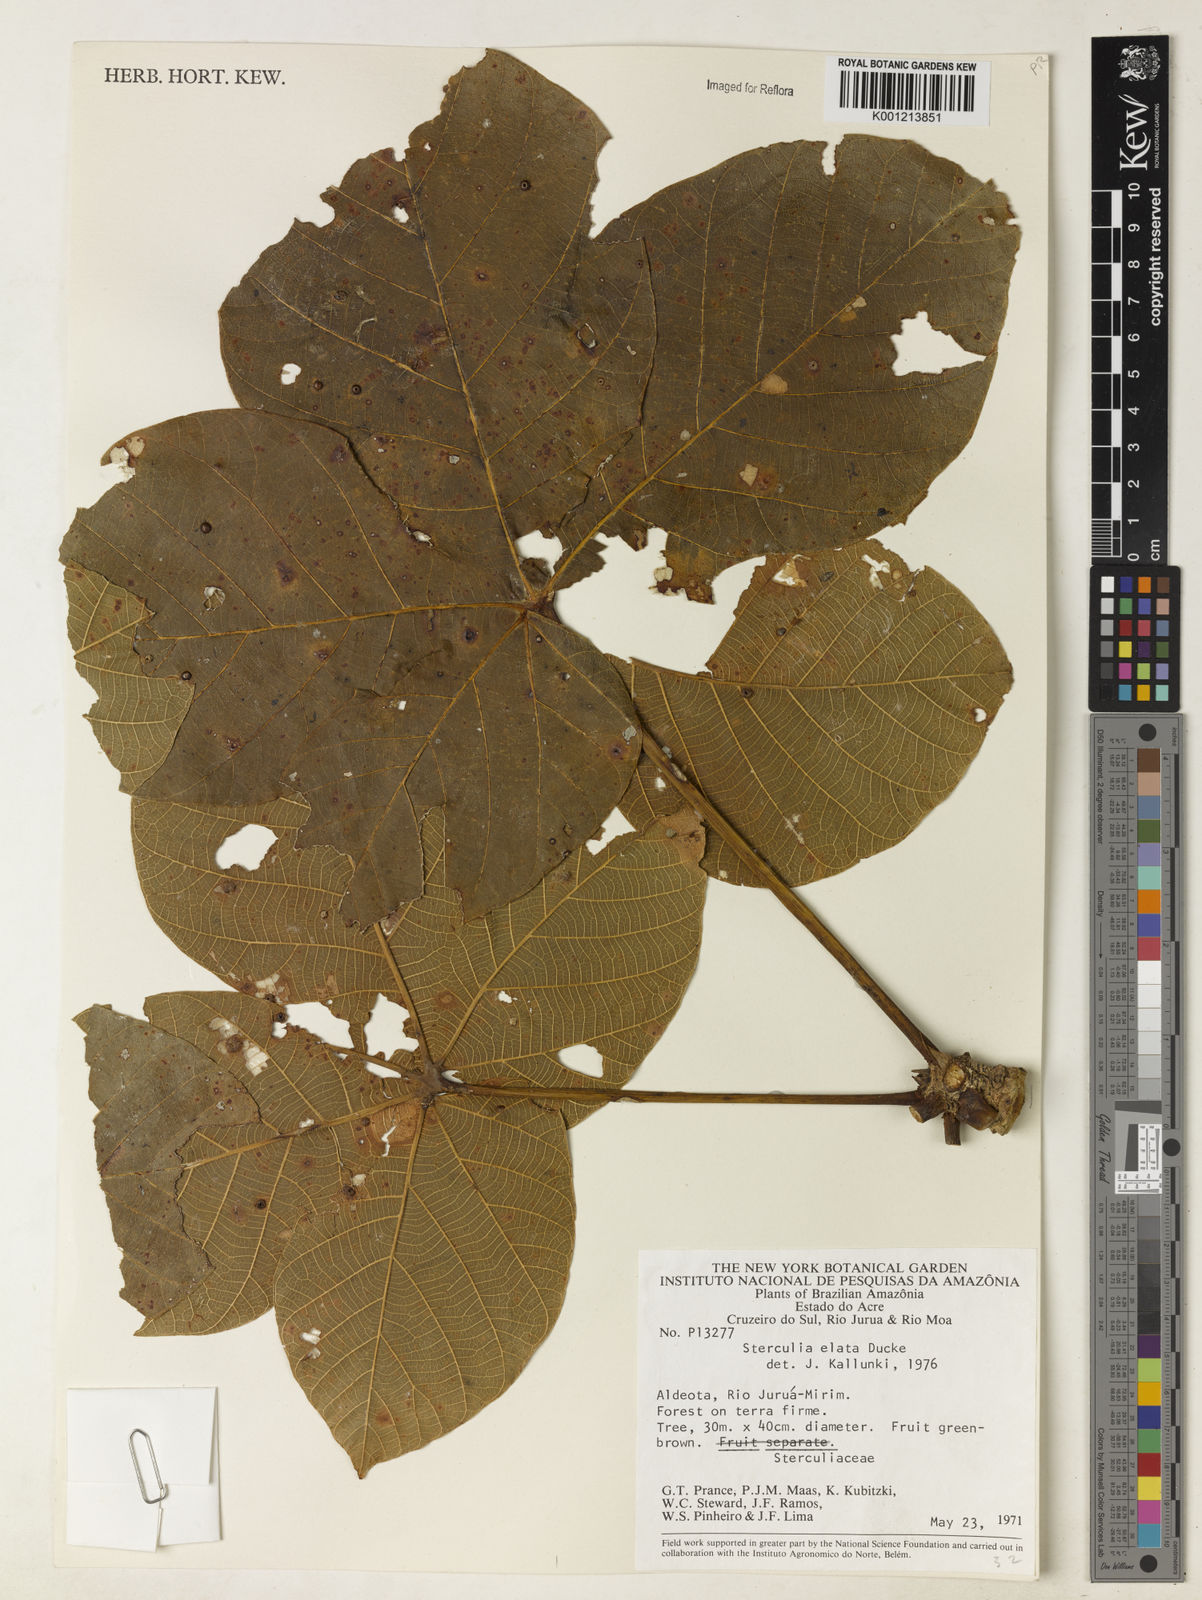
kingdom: Plantae
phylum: Tracheophyta
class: Magnoliopsida
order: Malvales
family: Malvaceae
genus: Sterculia
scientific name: Sterculia apetala
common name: Panama tree
